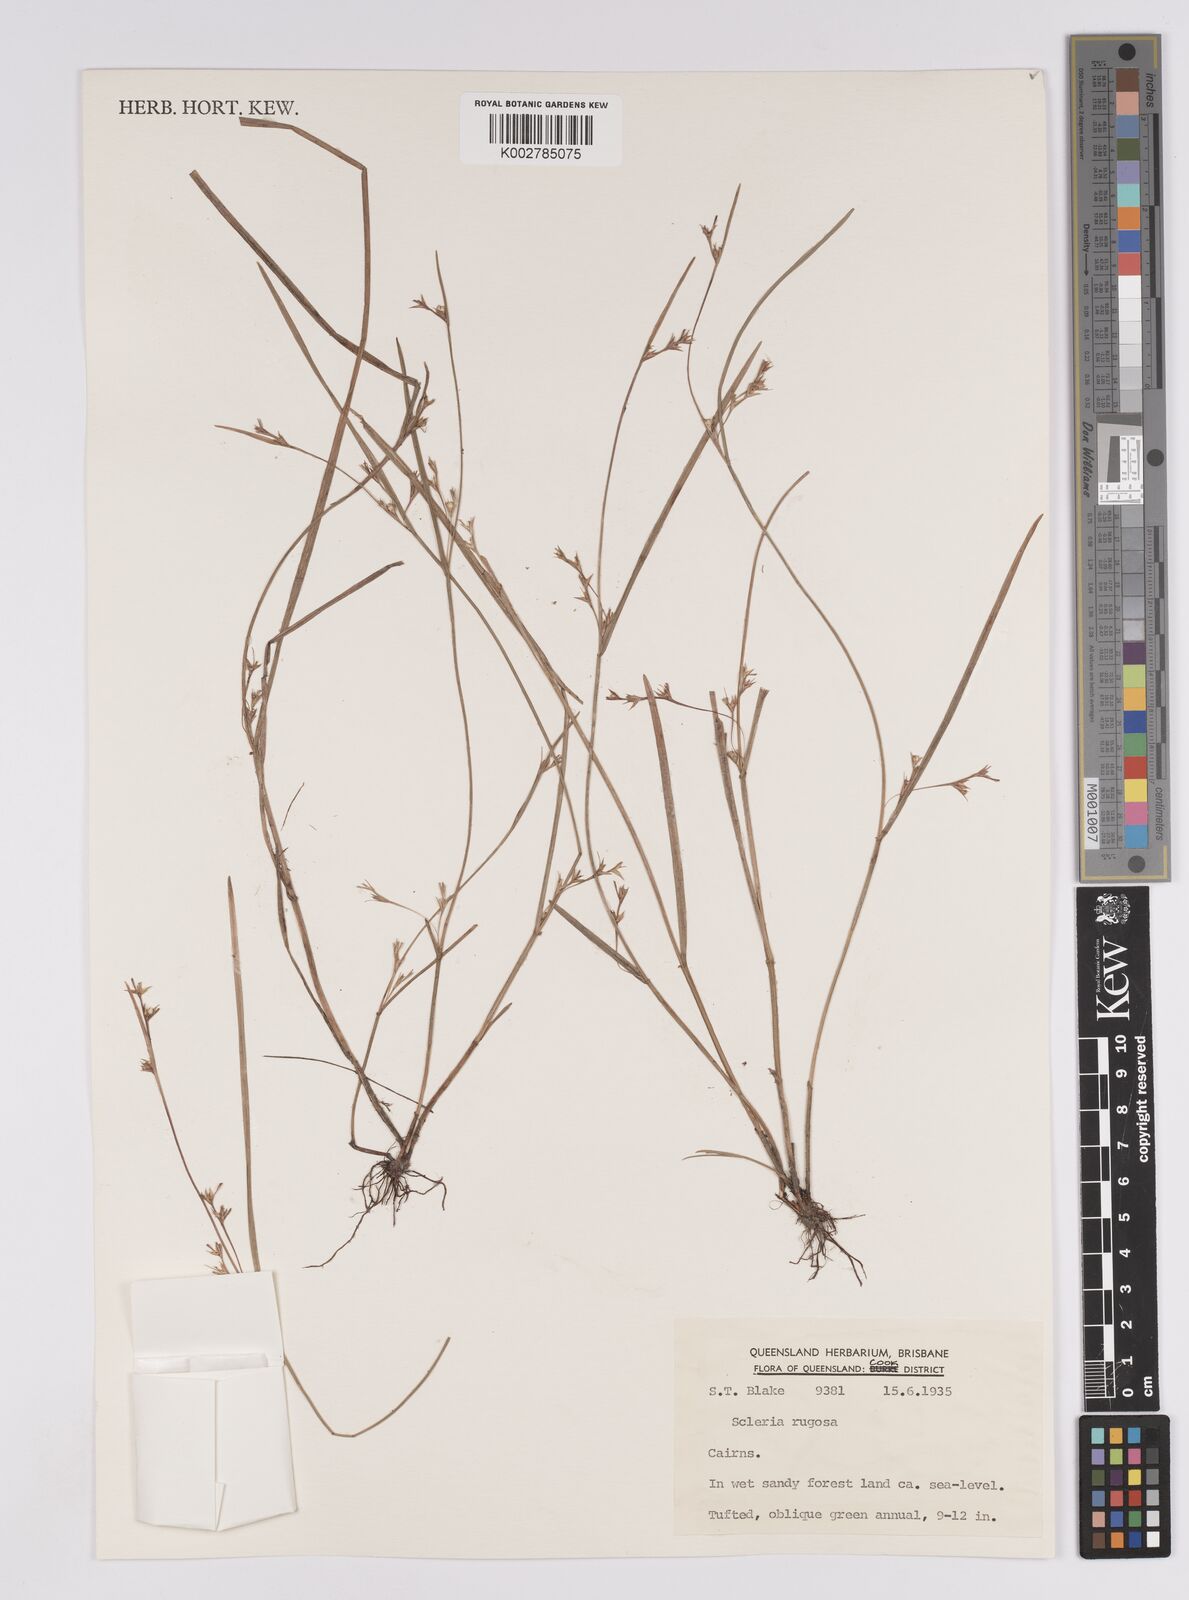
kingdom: Plantae
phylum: Tracheophyta
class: Liliopsida
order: Poales
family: Cyperaceae
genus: Scleria
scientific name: Scleria rugosa
